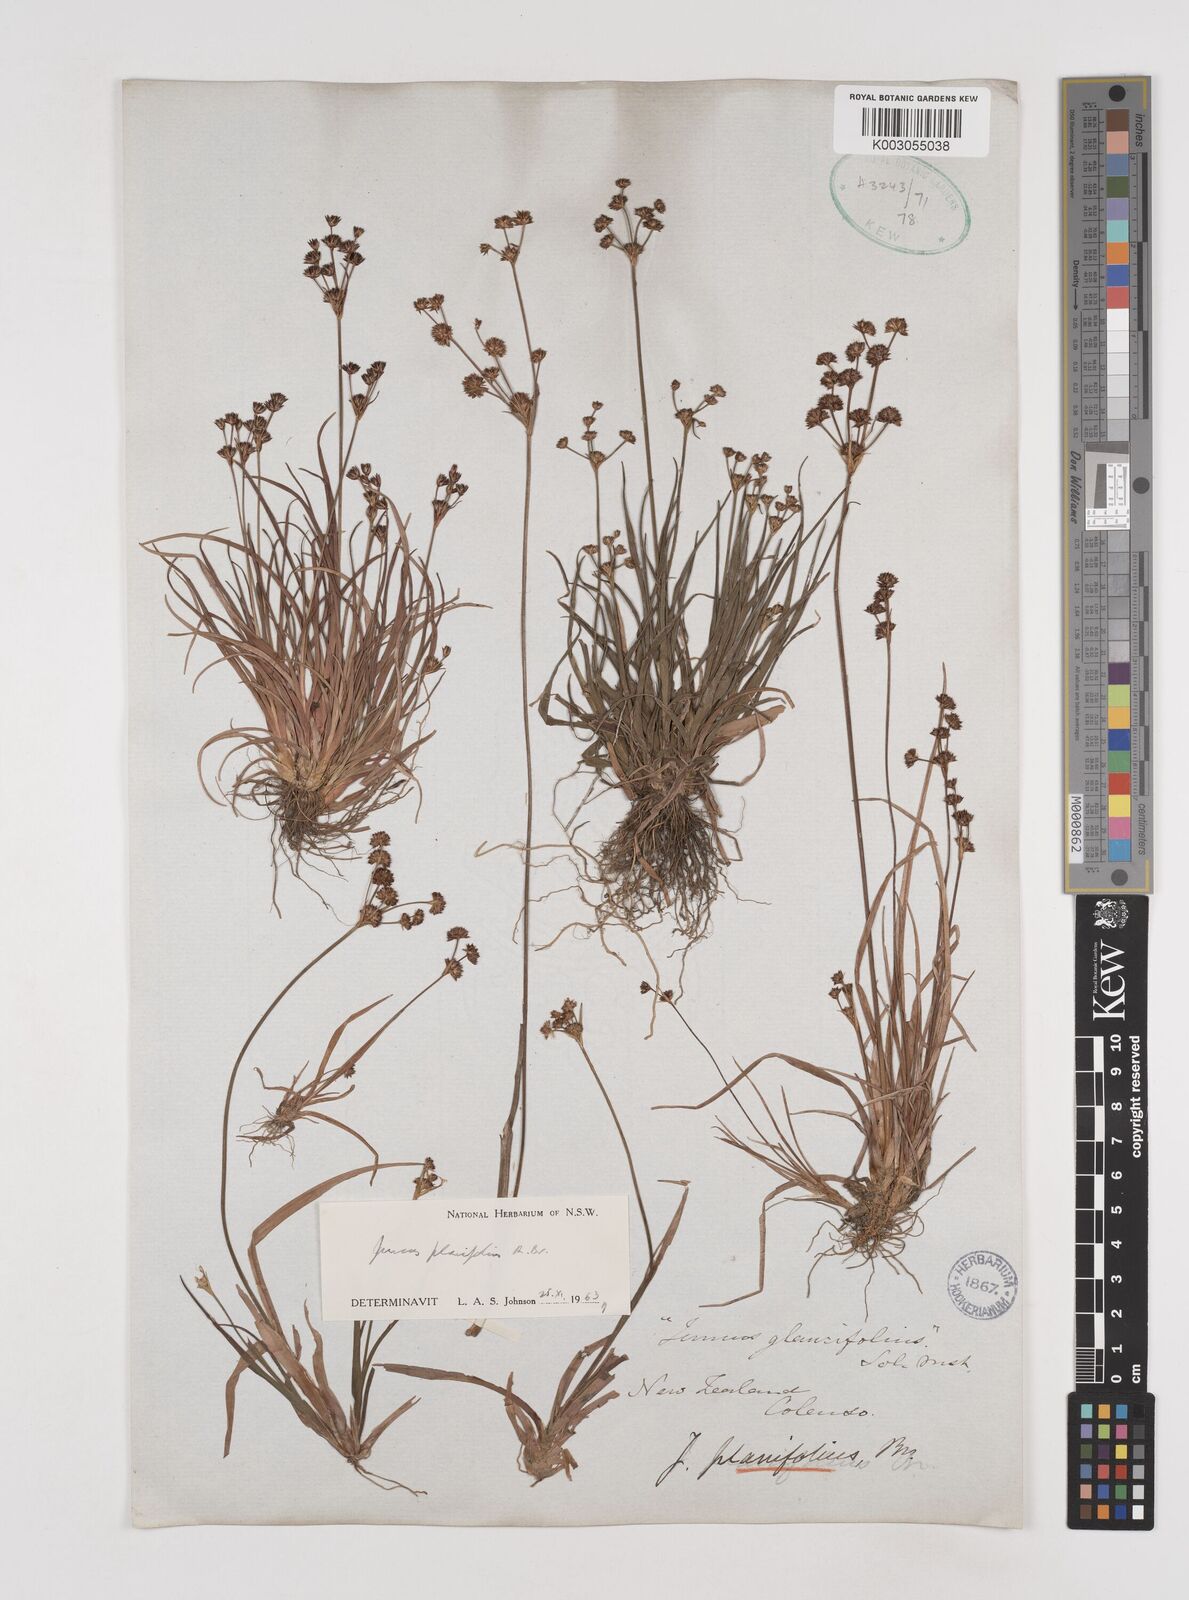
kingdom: Plantae
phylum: Tracheophyta
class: Liliopsida
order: Poales
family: Juncaceae
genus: Juncus
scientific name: Juncus planifolius
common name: Broadleaf rush
